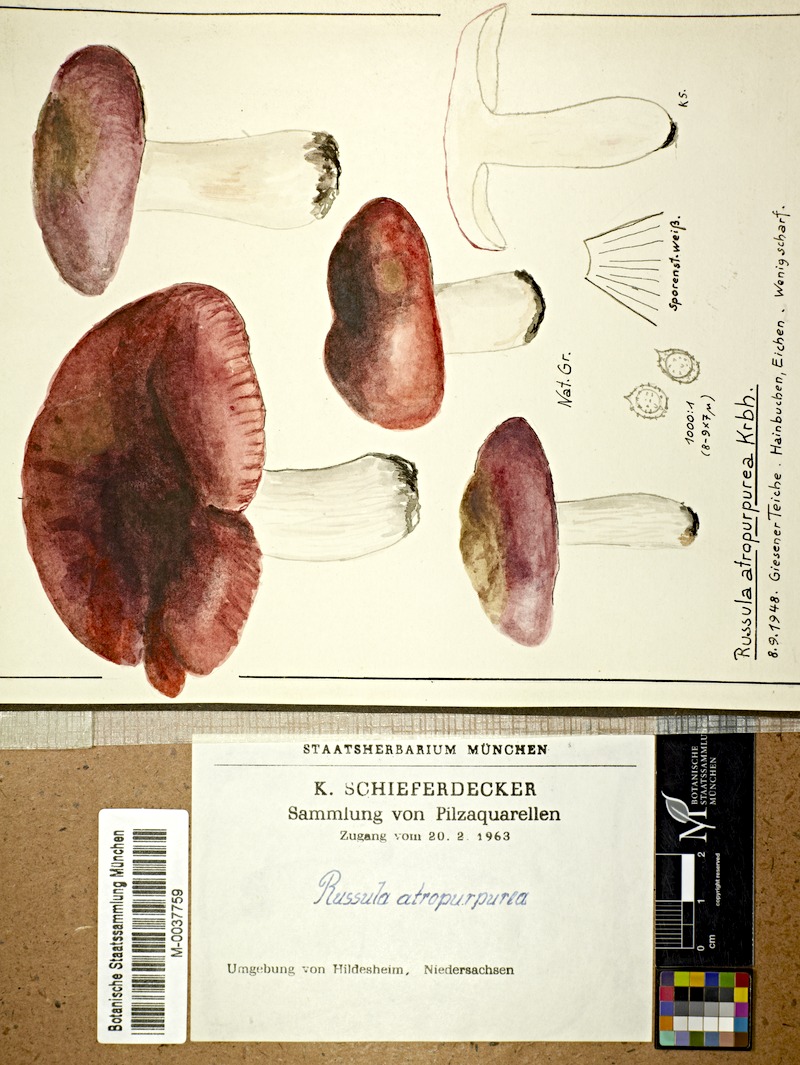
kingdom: Fungi
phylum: Basidiomycota
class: Agaricomycetes
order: Russulales
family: Russulaceae
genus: Russula
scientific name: Russula atropurpurea
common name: Blackish-purple russula
